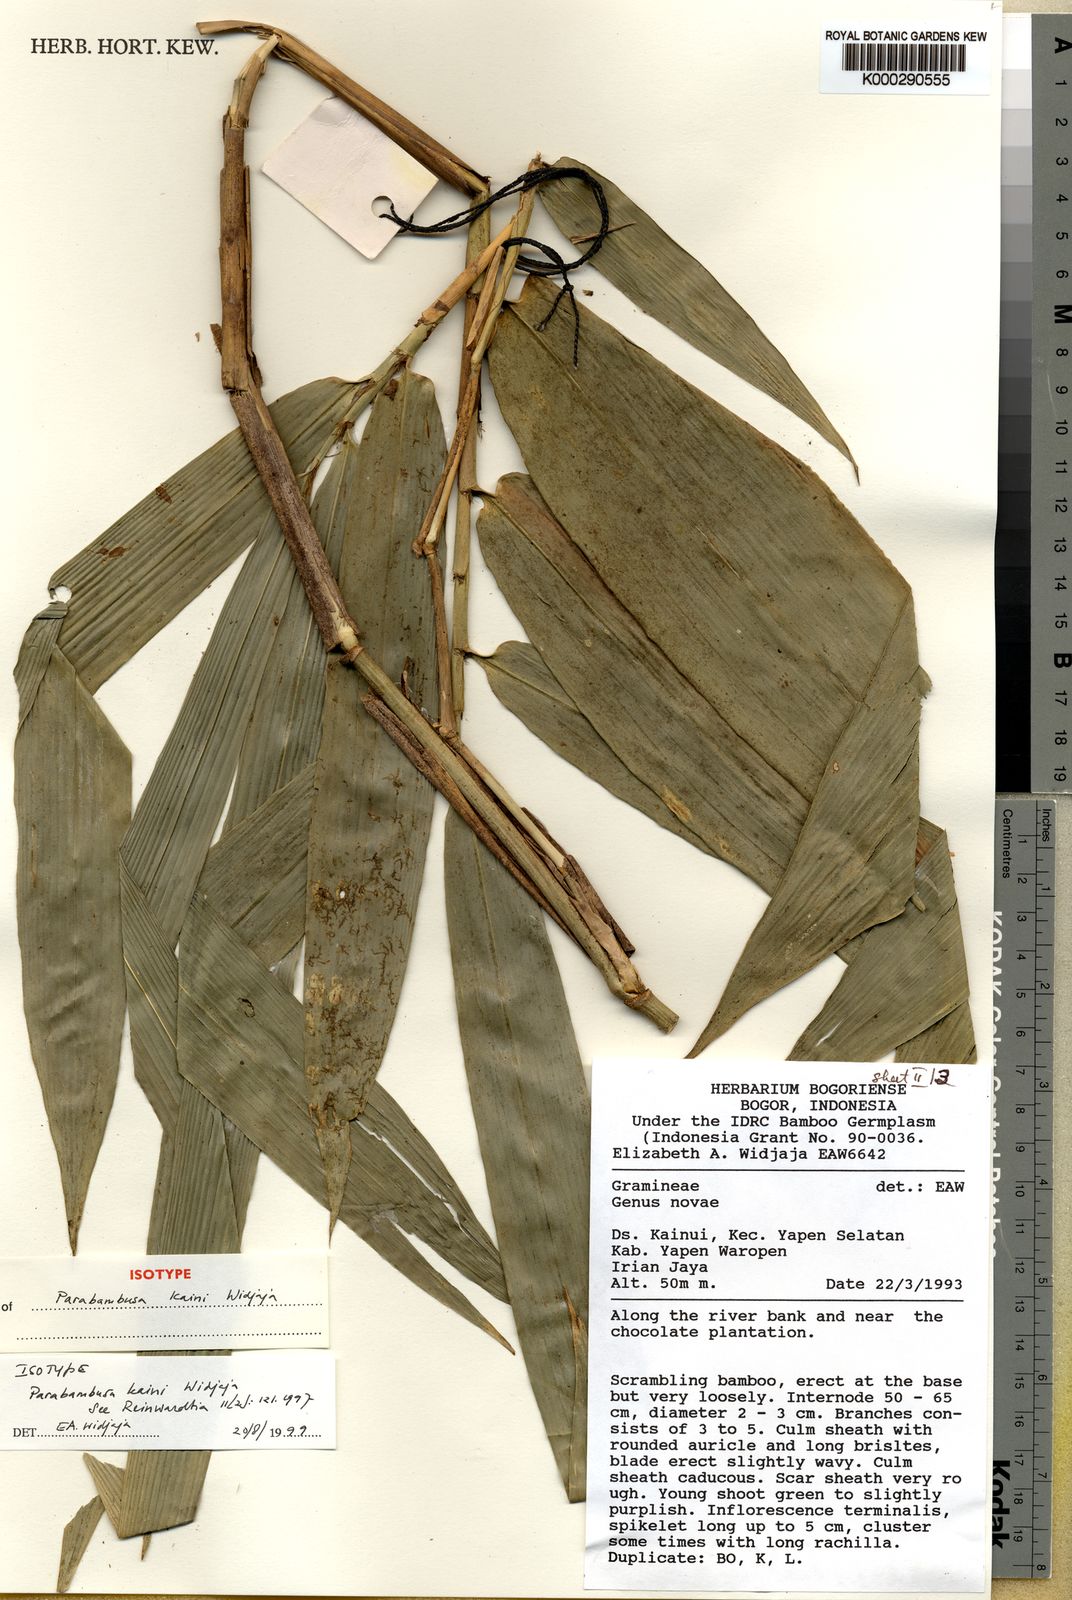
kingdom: Plantae
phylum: Tracheophyta
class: Liliopsida
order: Poales
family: Poaceae
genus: Parabambusa
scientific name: Parabambusa kaini
